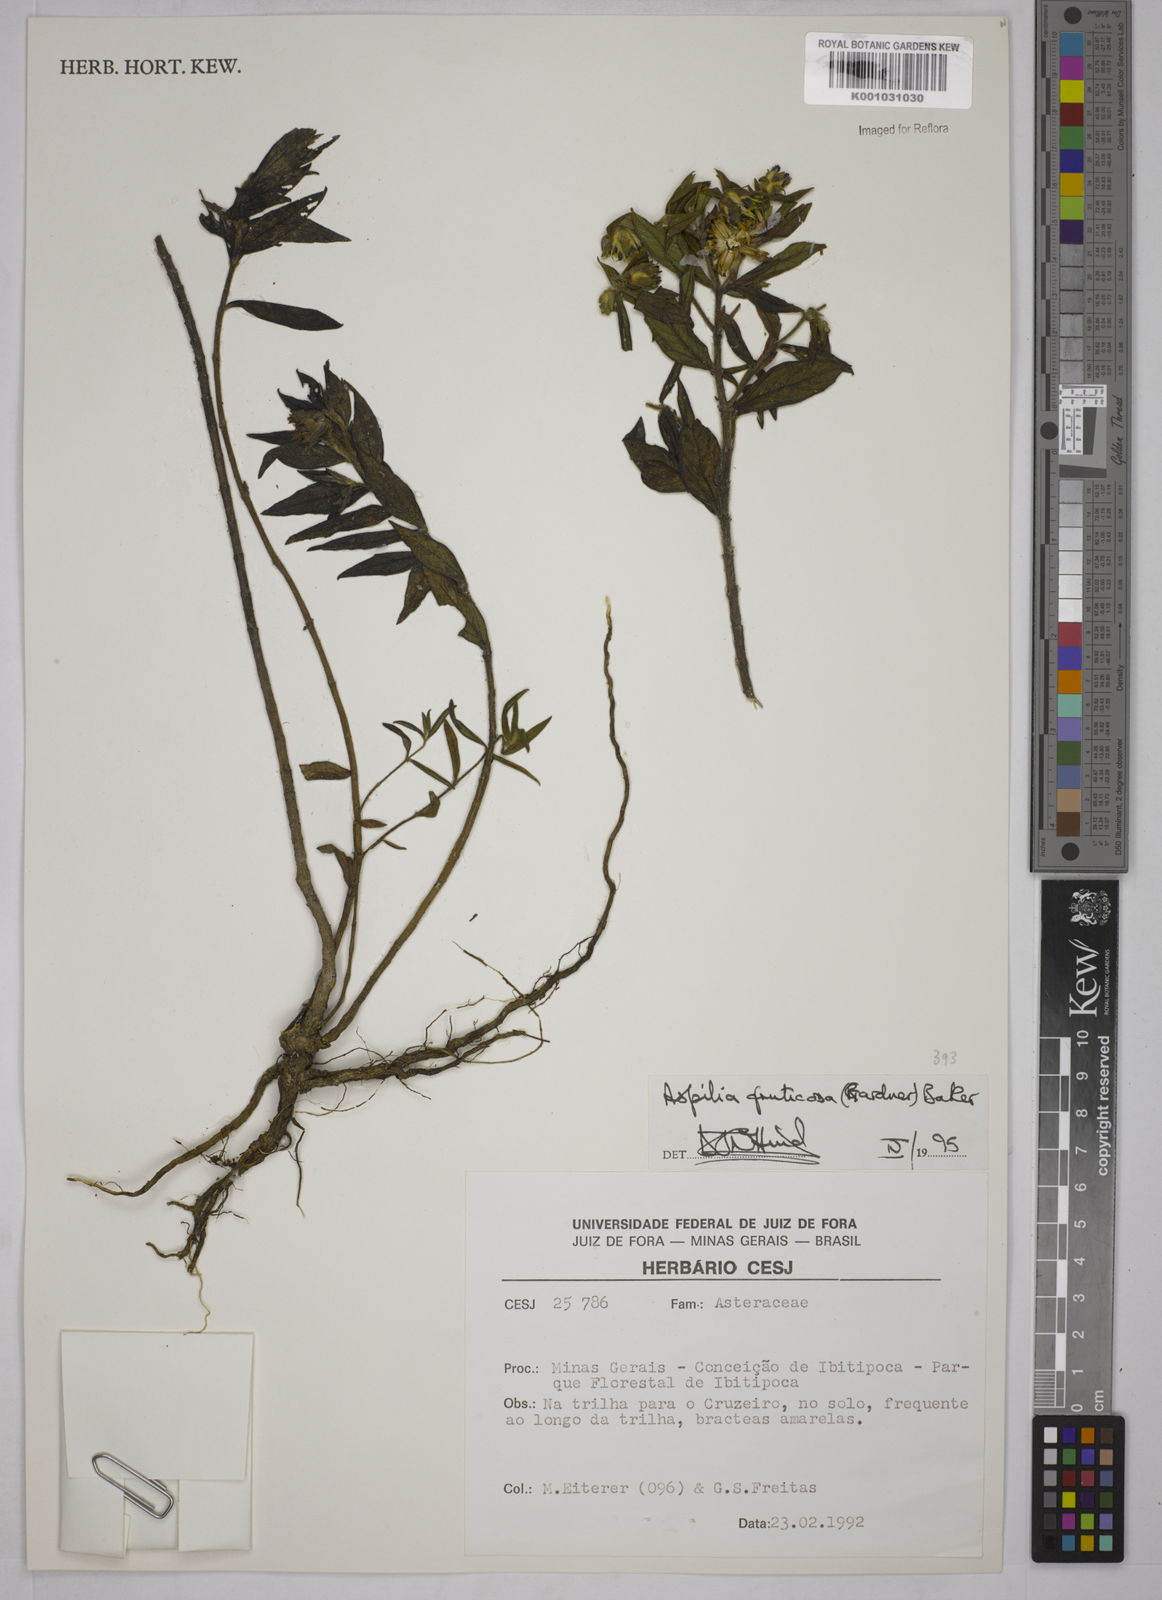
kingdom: Plantae
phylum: Tracheophyta
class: Magnoliopsida
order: Asterales
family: Asteraceae
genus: Wedelia
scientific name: Wedelia frustrata
